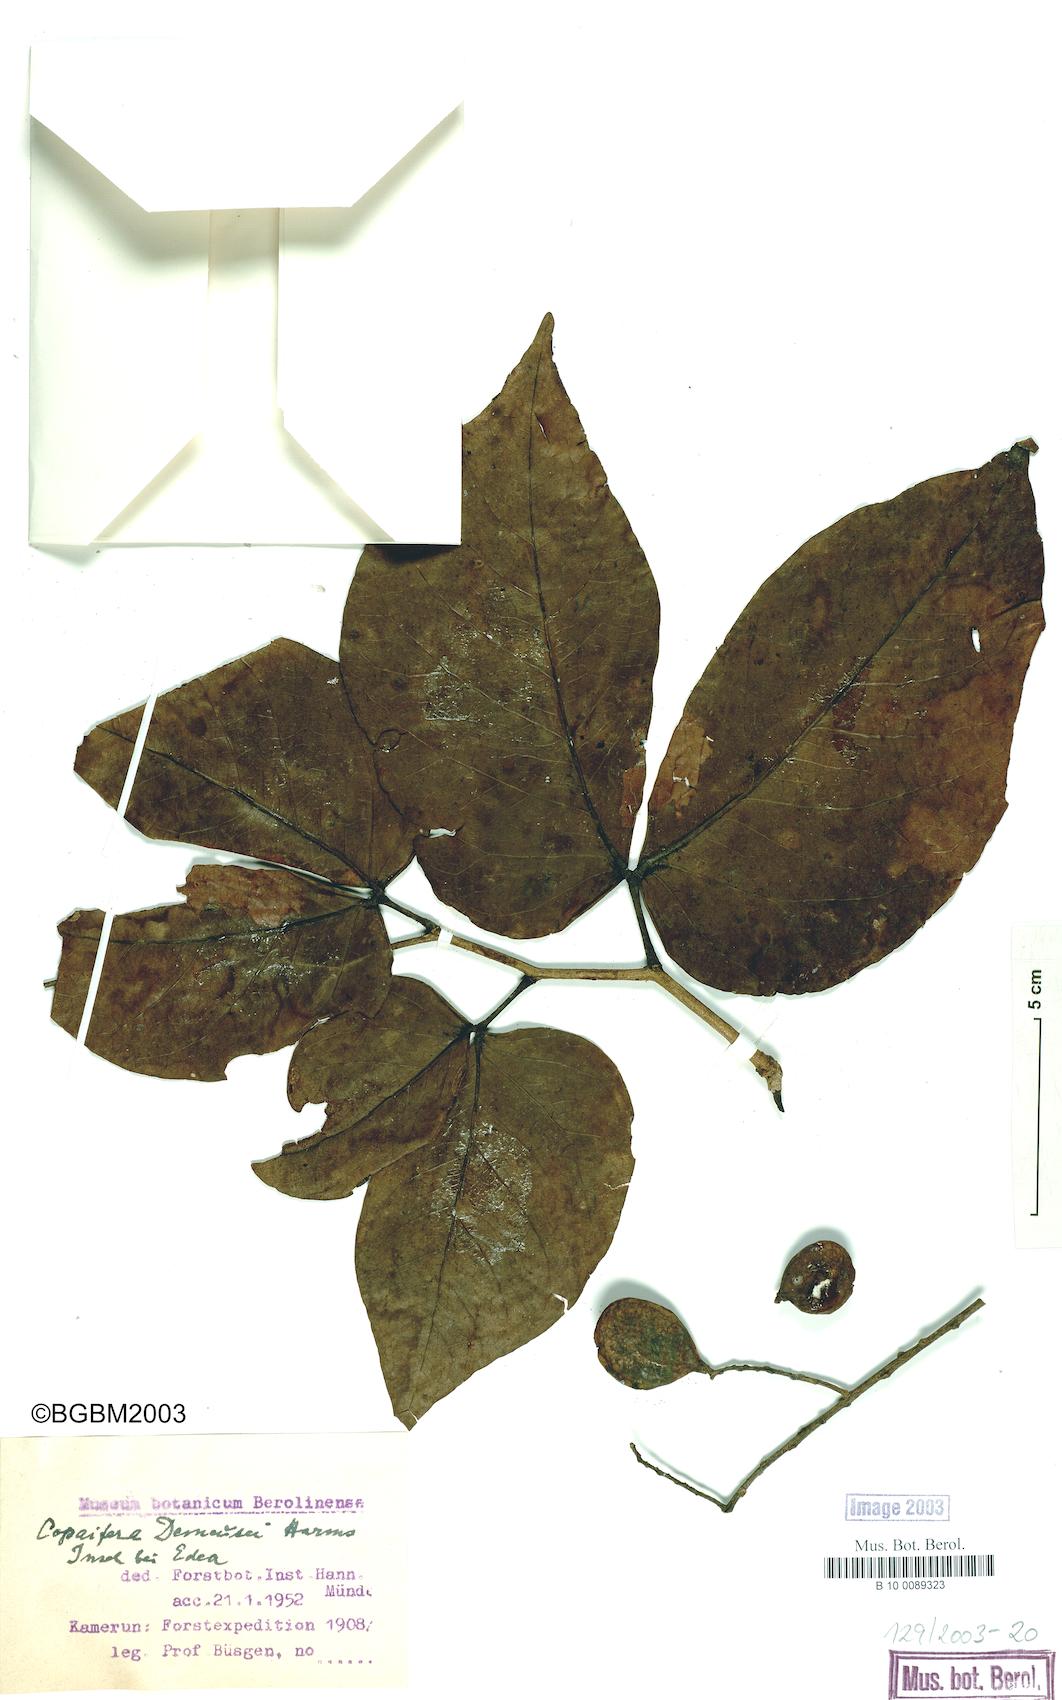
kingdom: Plantae
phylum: Tracheophyta
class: Magnoliopsida
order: Fabales
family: Fabaceae
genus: Guibourtia
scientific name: Guibourtia demeusei
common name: African rosewood
